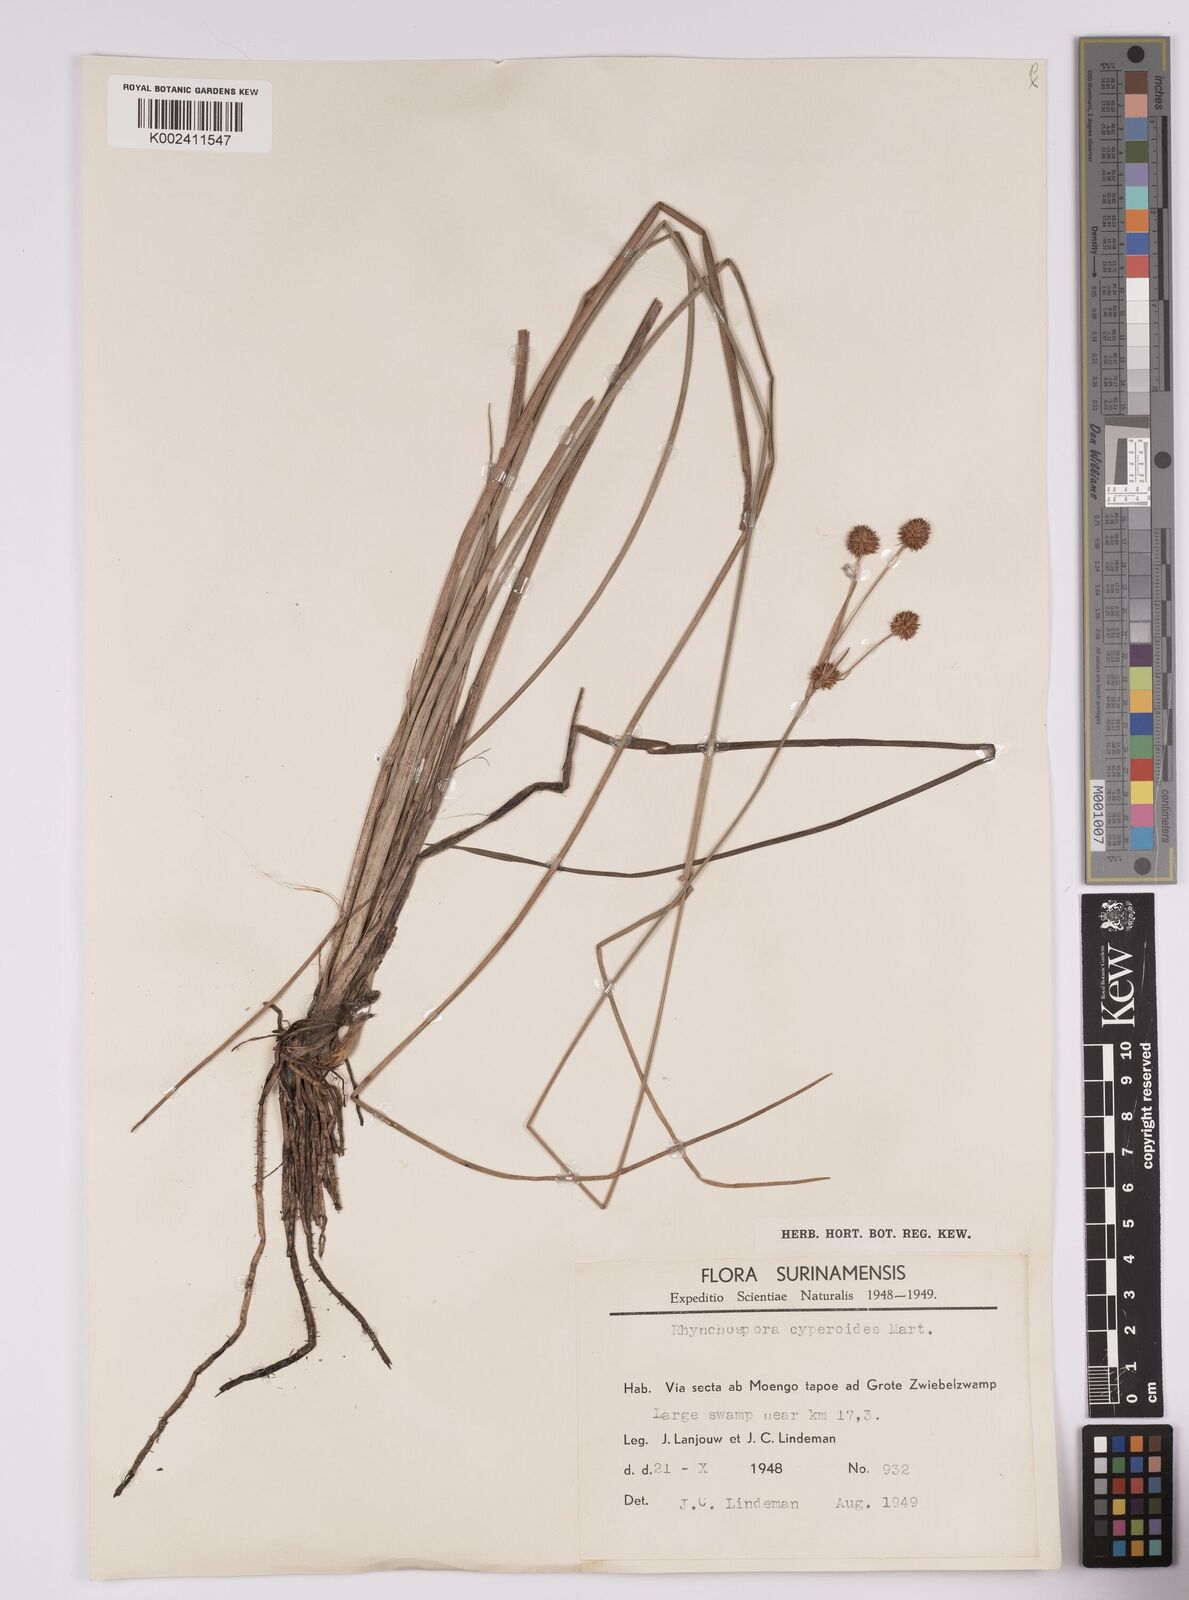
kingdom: Plantae
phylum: Tracheophyta
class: Liliopsida
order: Poales
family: Cyperaceae
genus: Rhynchospora
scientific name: Rhynchospora holoschoenoides
